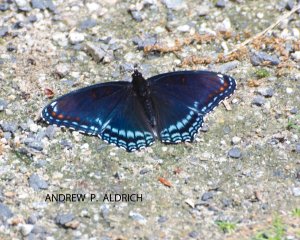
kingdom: Animalia
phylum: Arthropoda
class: Insecta
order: Lepidoptera
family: Nymphalidae
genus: Limenitis
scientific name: Limenitis astyanax
